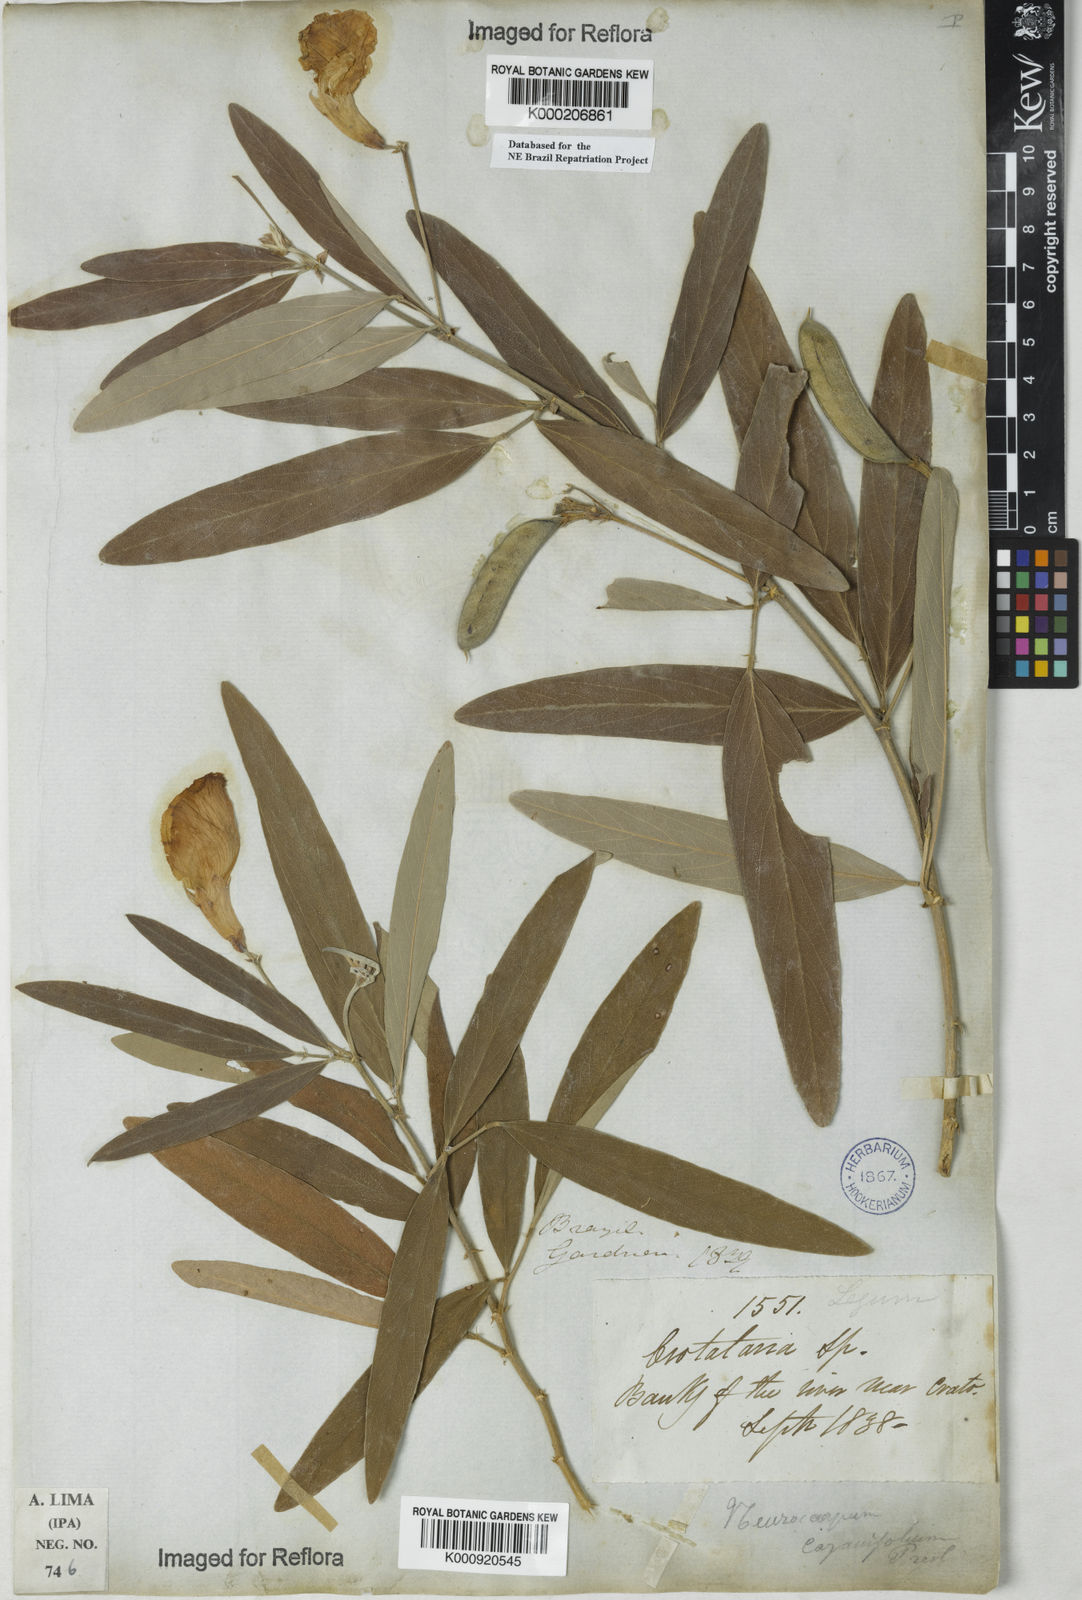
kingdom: Plantae
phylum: Tracheophyta
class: Magnoliopsida
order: Fabales
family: Fabaceae
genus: Clitoria
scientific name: Clitoria laurifolia
